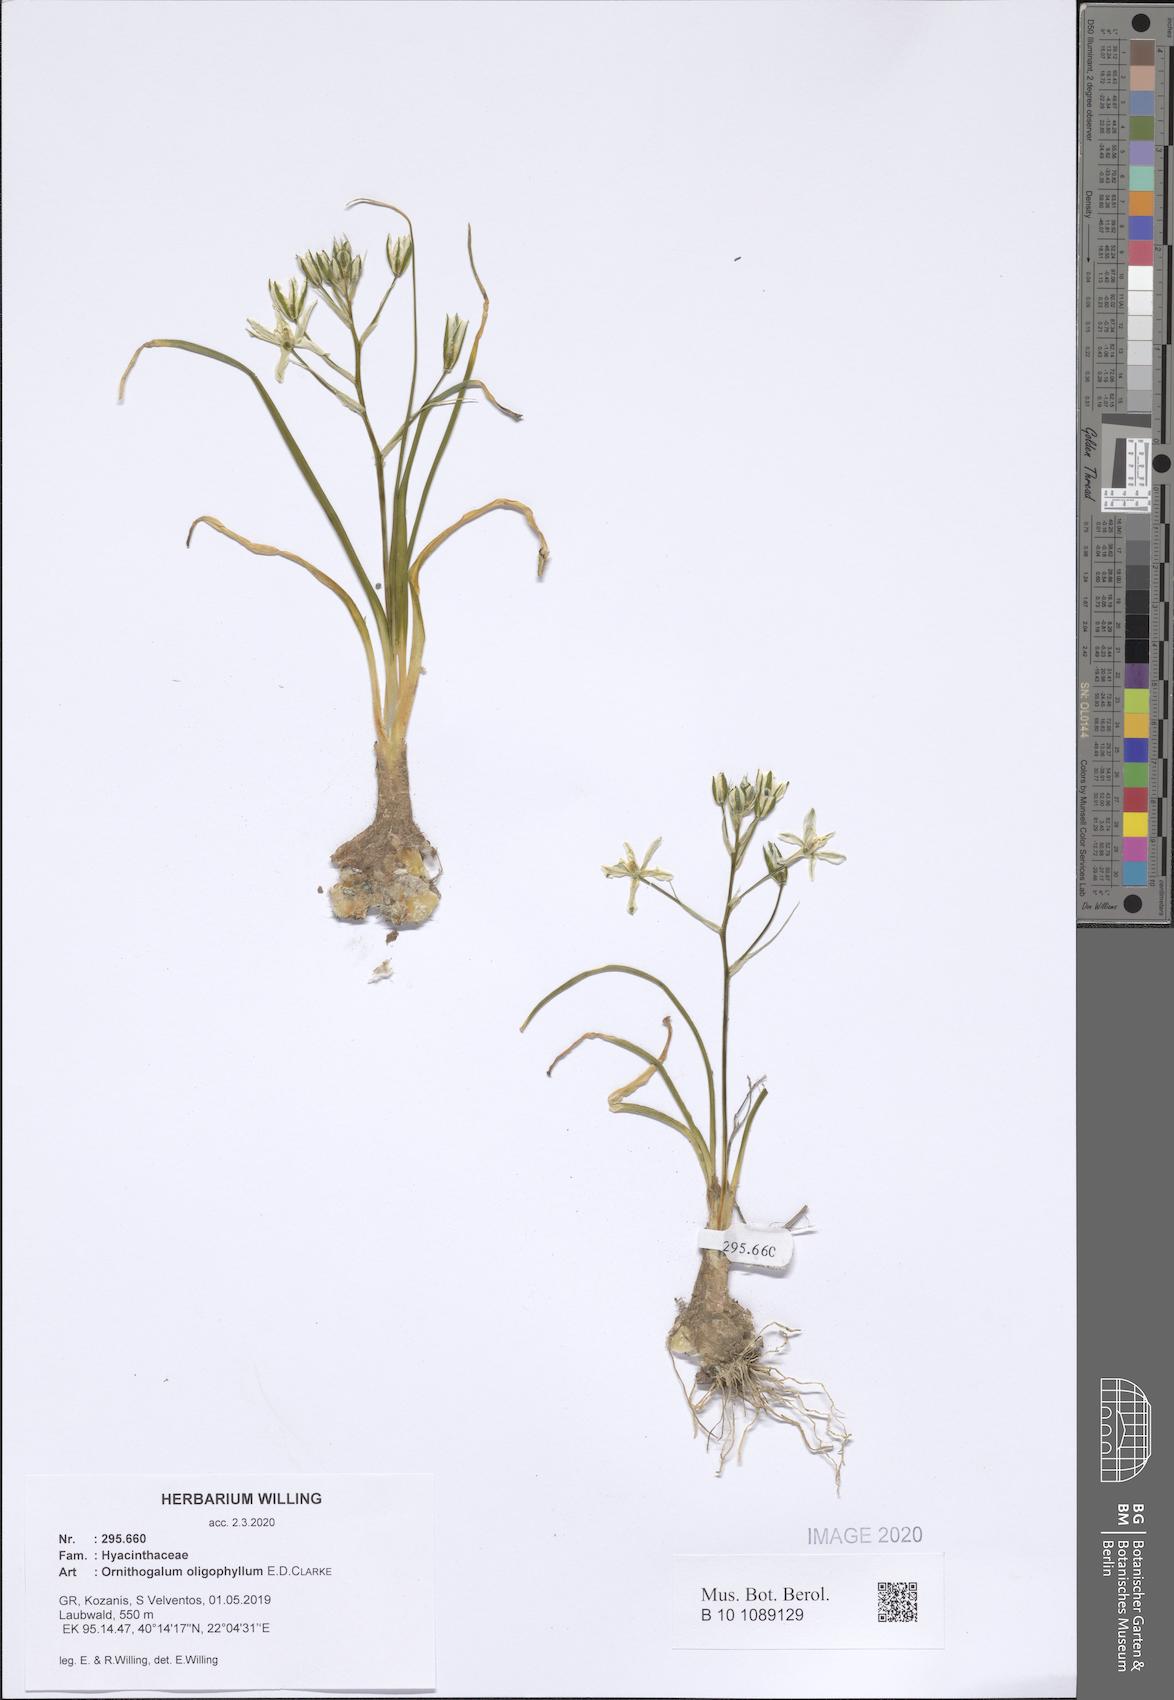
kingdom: Plantae
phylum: Tracheophyta
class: Liliopsida
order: Asparagales
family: Asparagaceae
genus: Ornithogalum
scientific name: Ornithogalum oligophyllum
